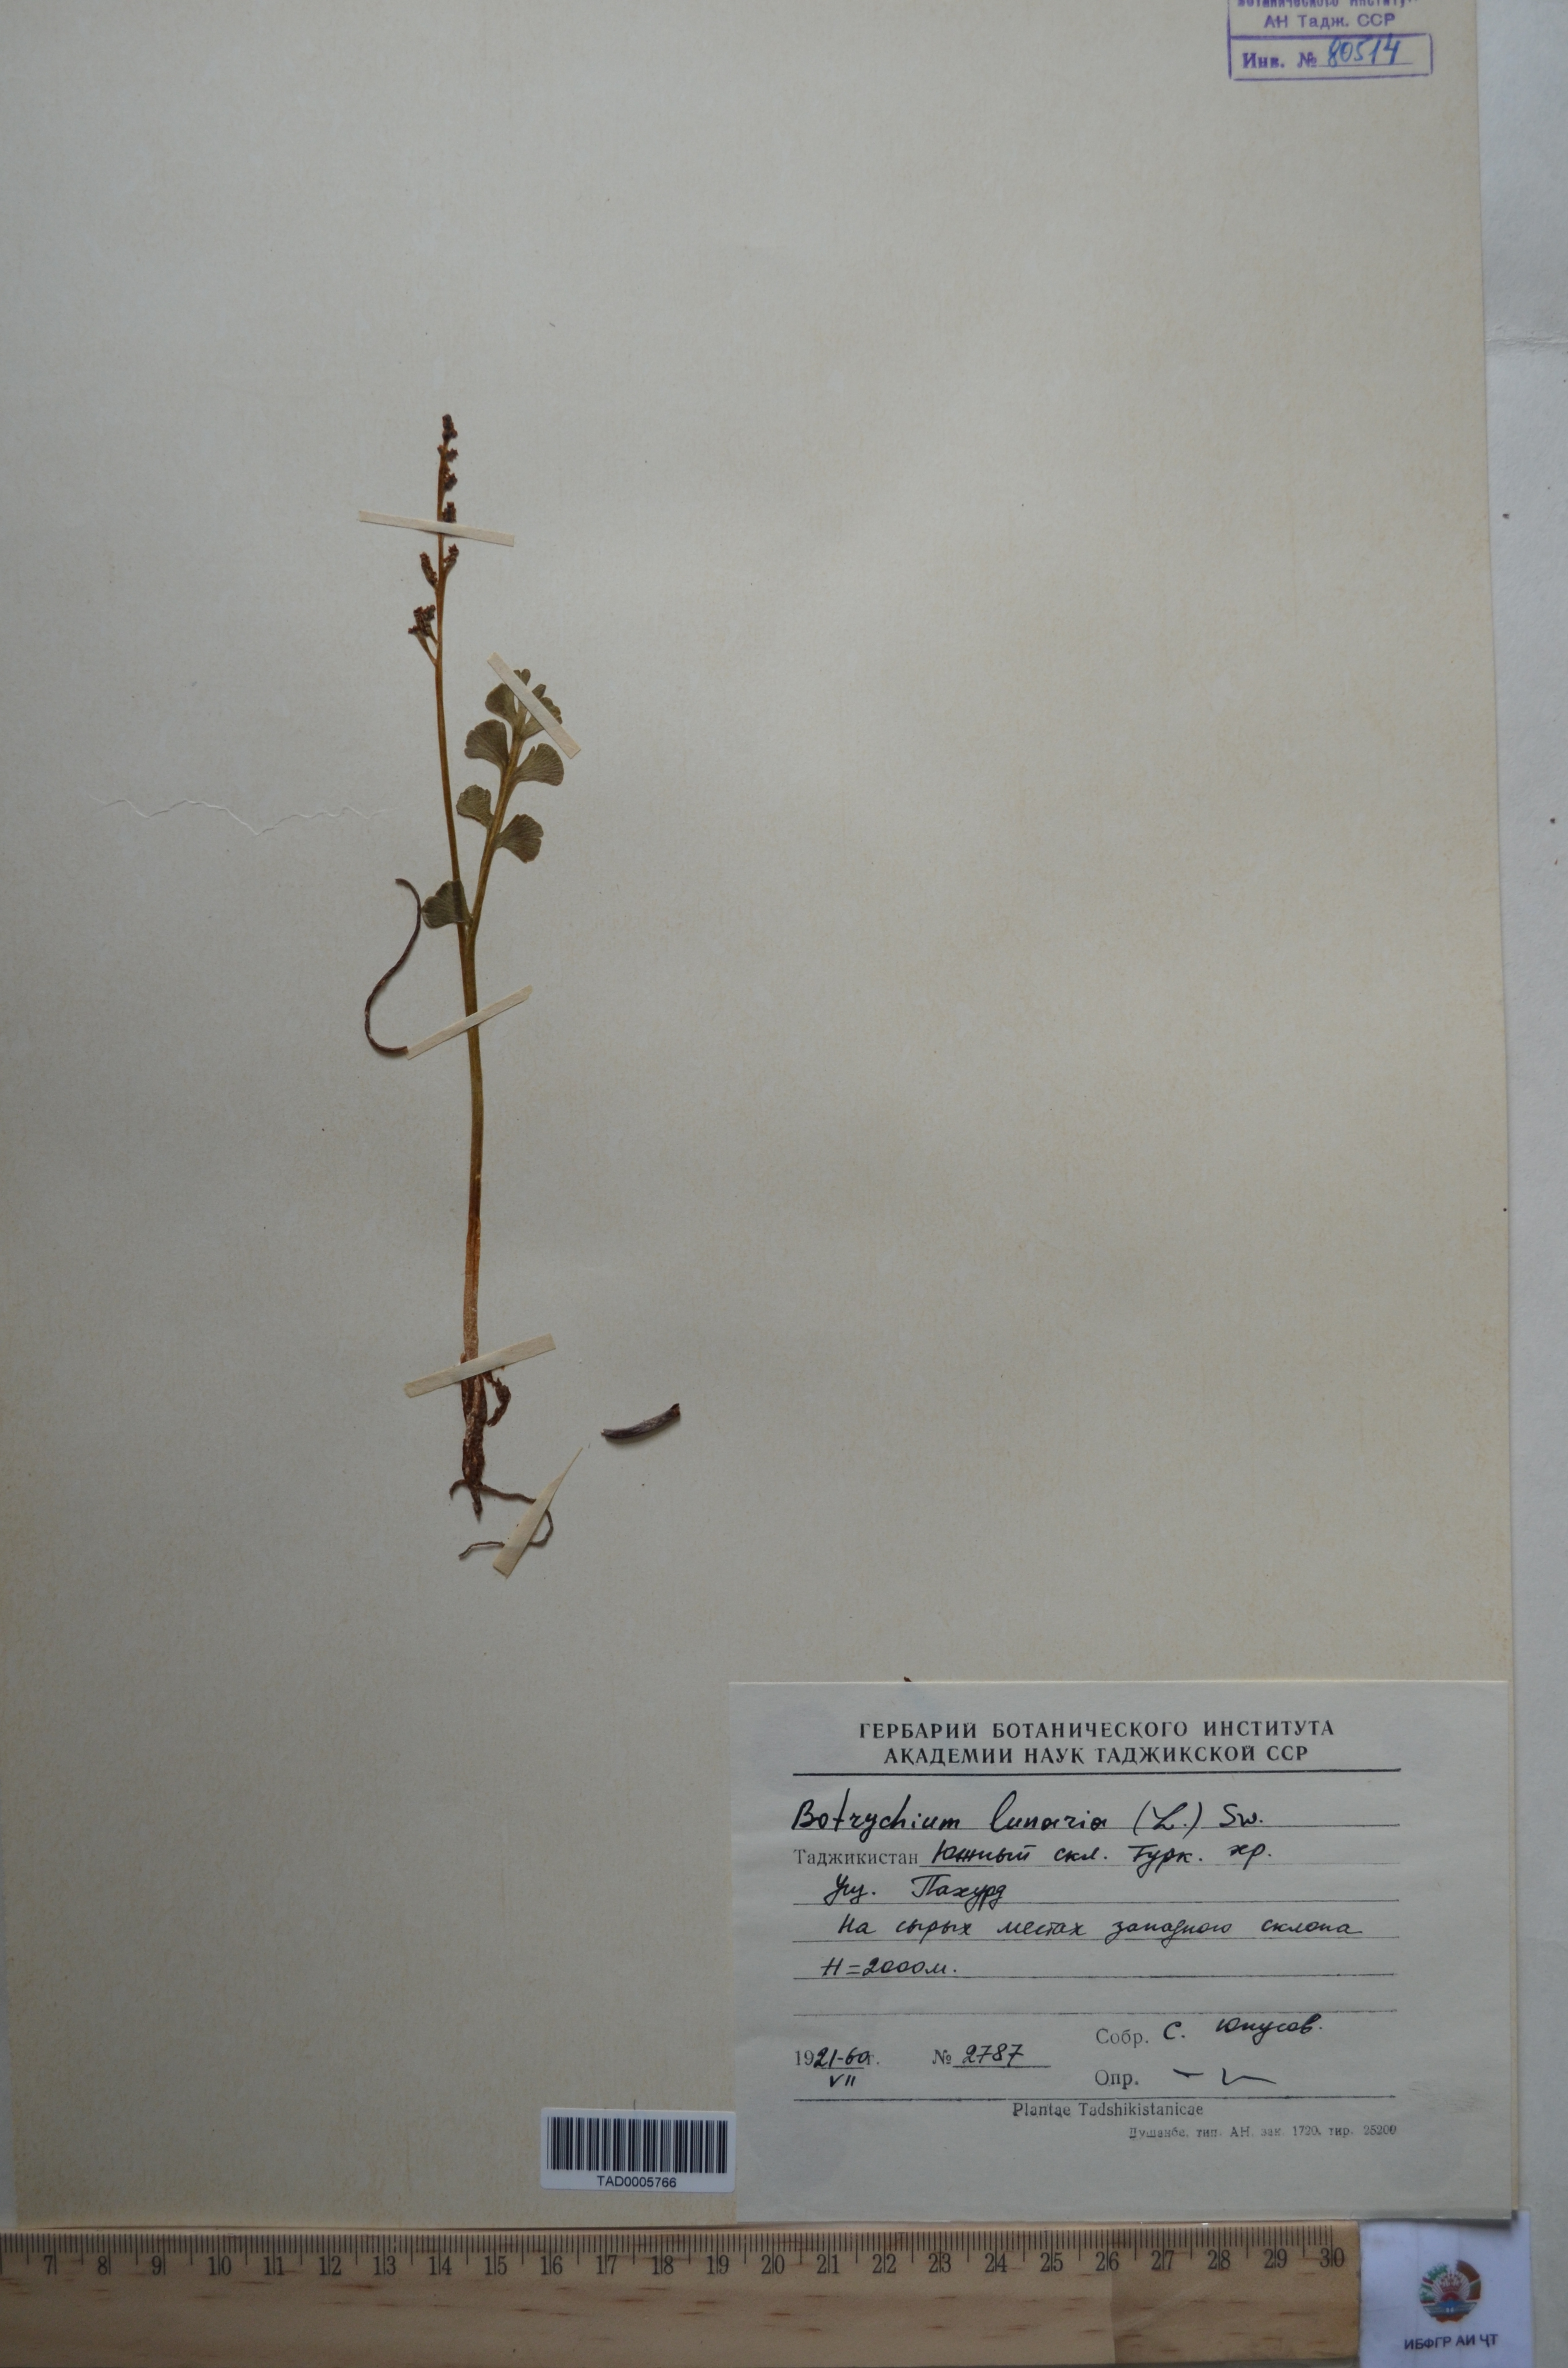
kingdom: Plantae
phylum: Tracheophyta
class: Polypodiopsida
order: Ophioglossales
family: Ophioglossaceae
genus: Botrychium
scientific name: Botrychium lunaria
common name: Moonwort
